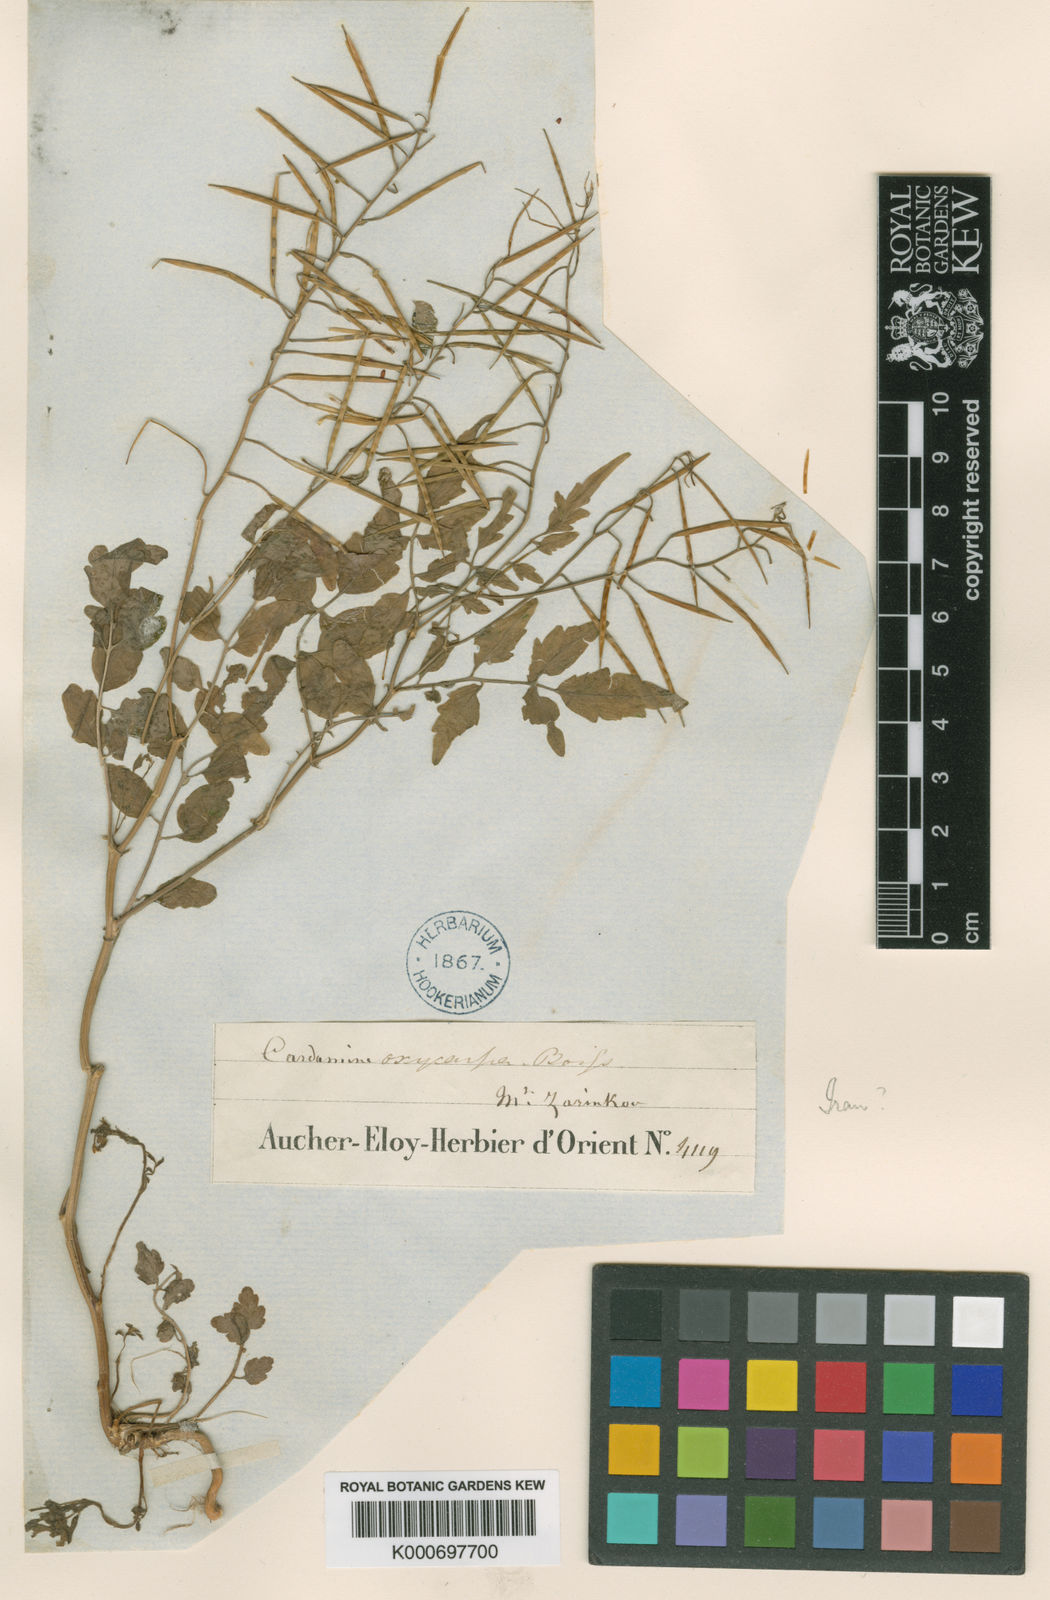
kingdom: Plantae
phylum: Tracheophyta
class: Magnoliopsida
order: Brassicales
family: Brassicaceae
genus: Cardamine
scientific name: Cardamine impatiens
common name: Narrow-leaved bitter-cress
